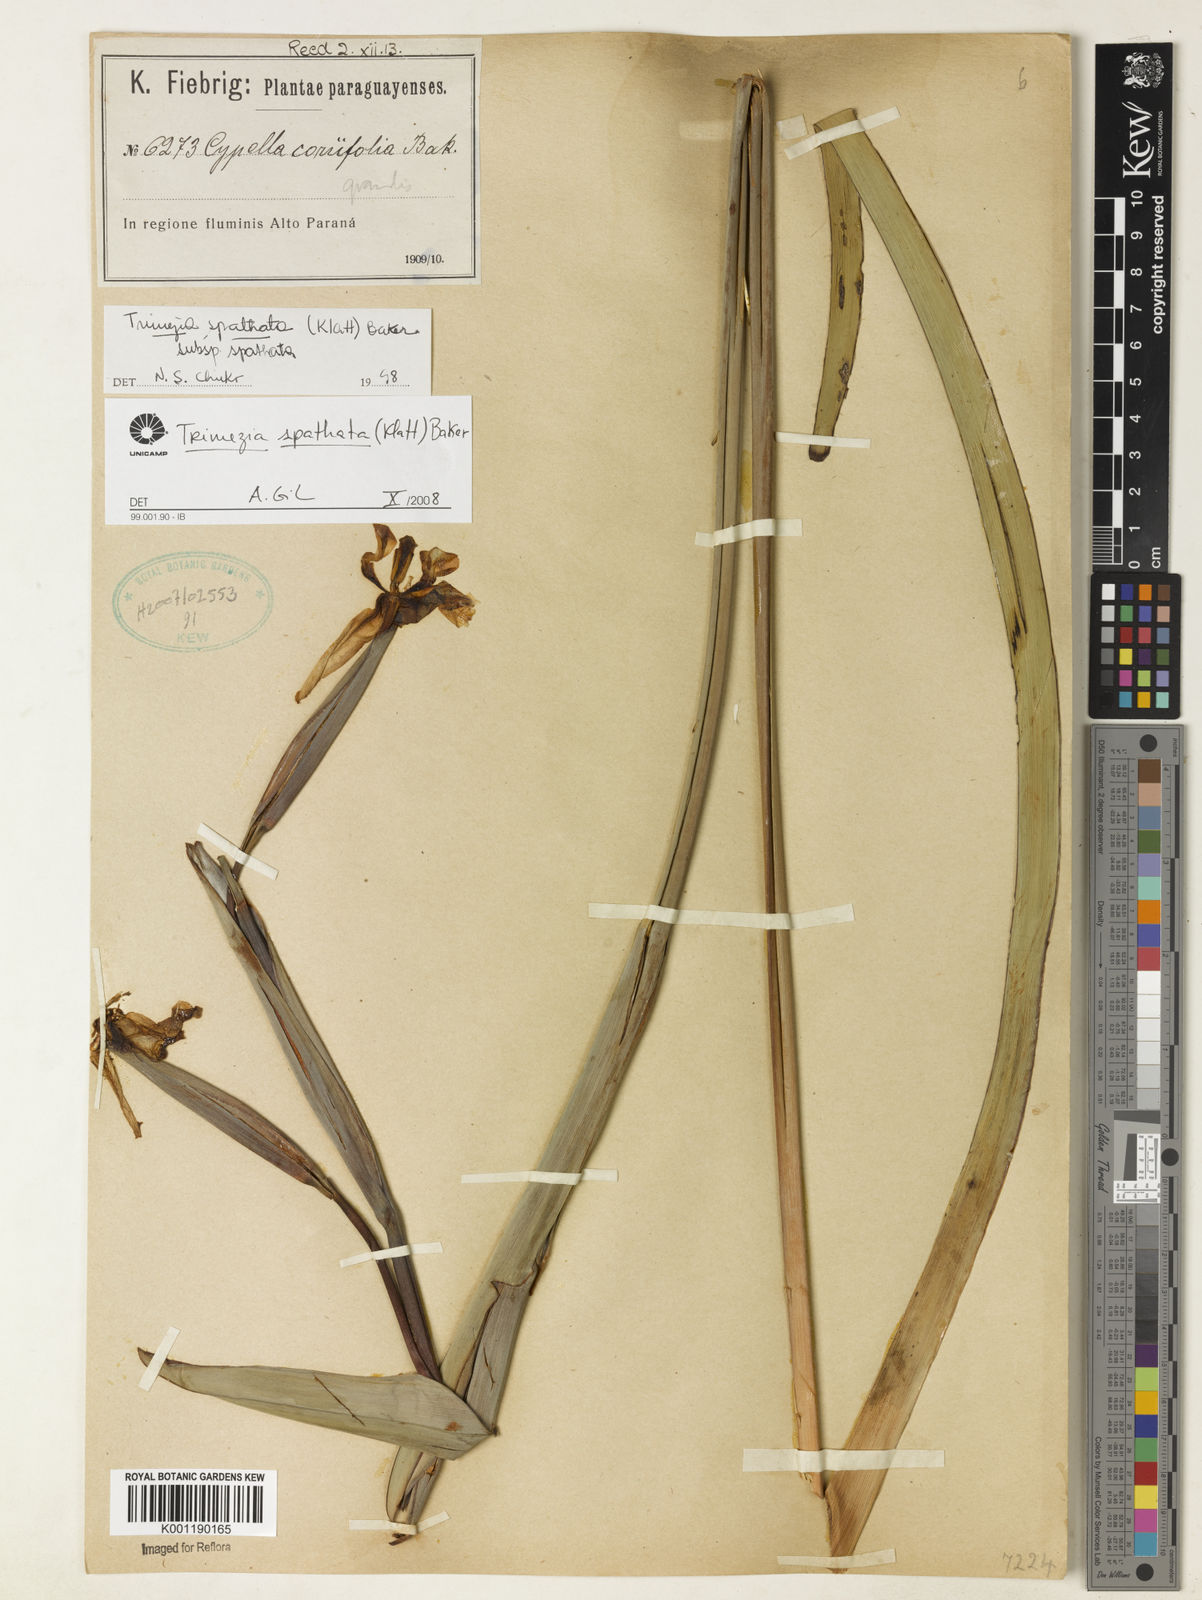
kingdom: Plantae
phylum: Tracheophyta
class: Liliopsida
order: Asparagales
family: Iridaceae
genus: Trimezia
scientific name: Trimezia spathata
